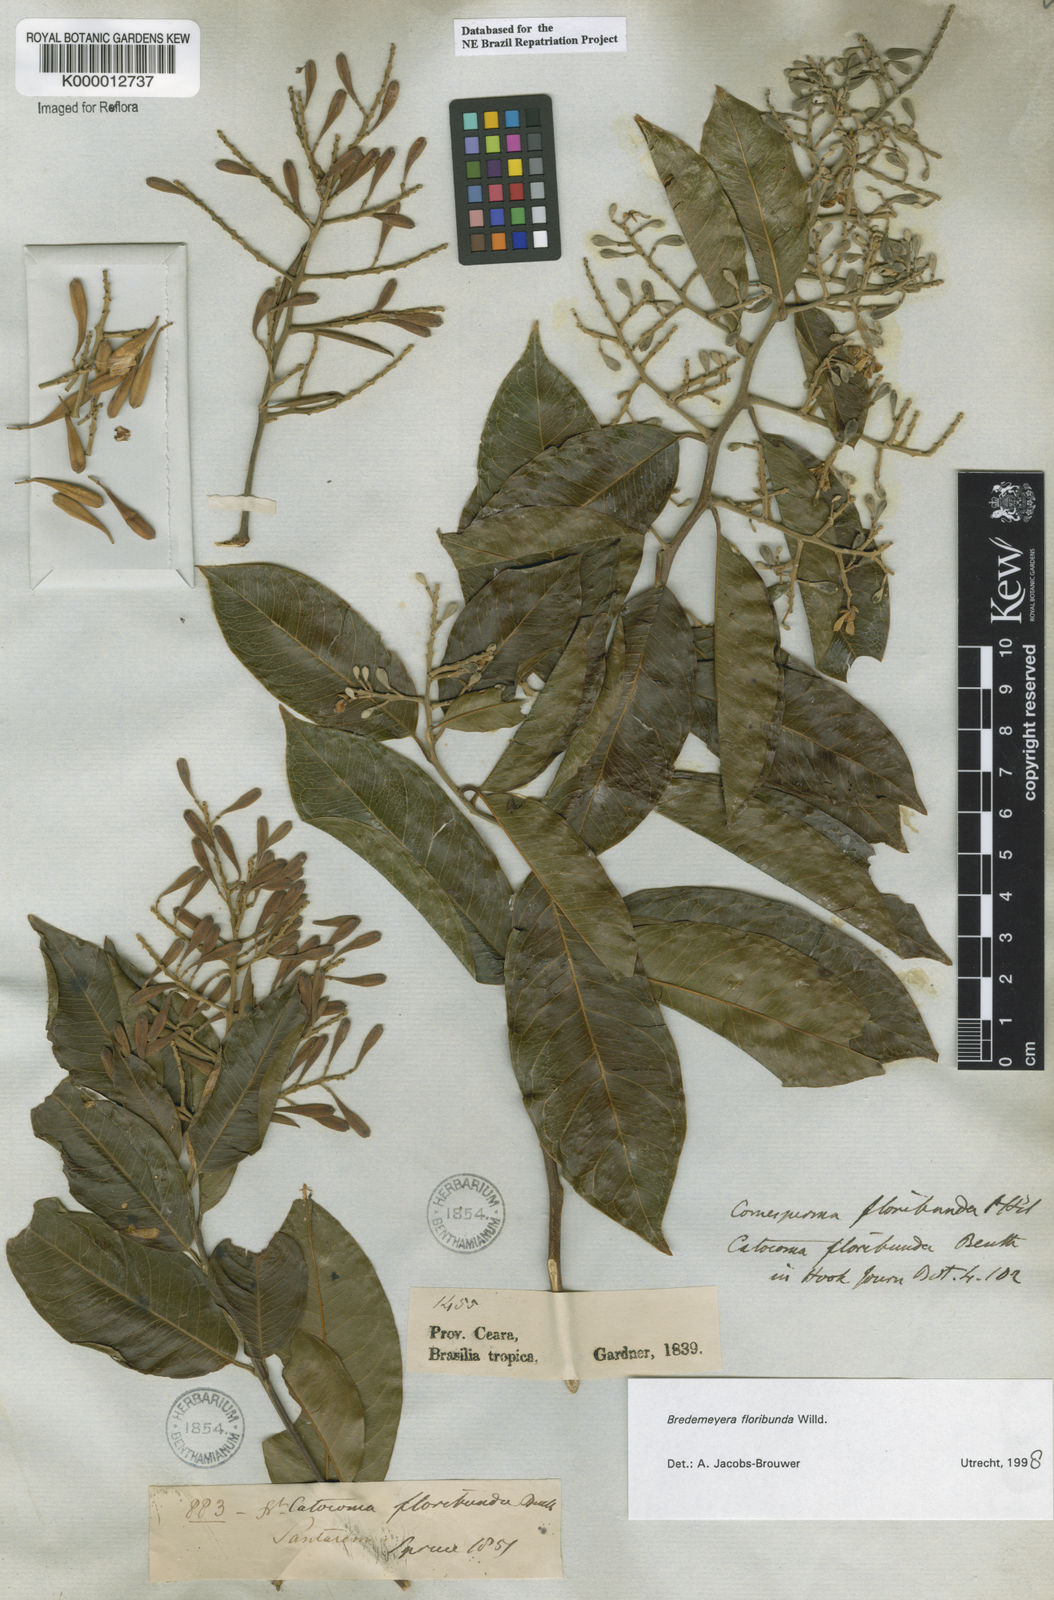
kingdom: Plantae
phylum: Tracheophyta
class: Magnoliopsida
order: Fabales
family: Polygalaceae
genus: Bredemeyera
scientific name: Bredemeyera floribunda
